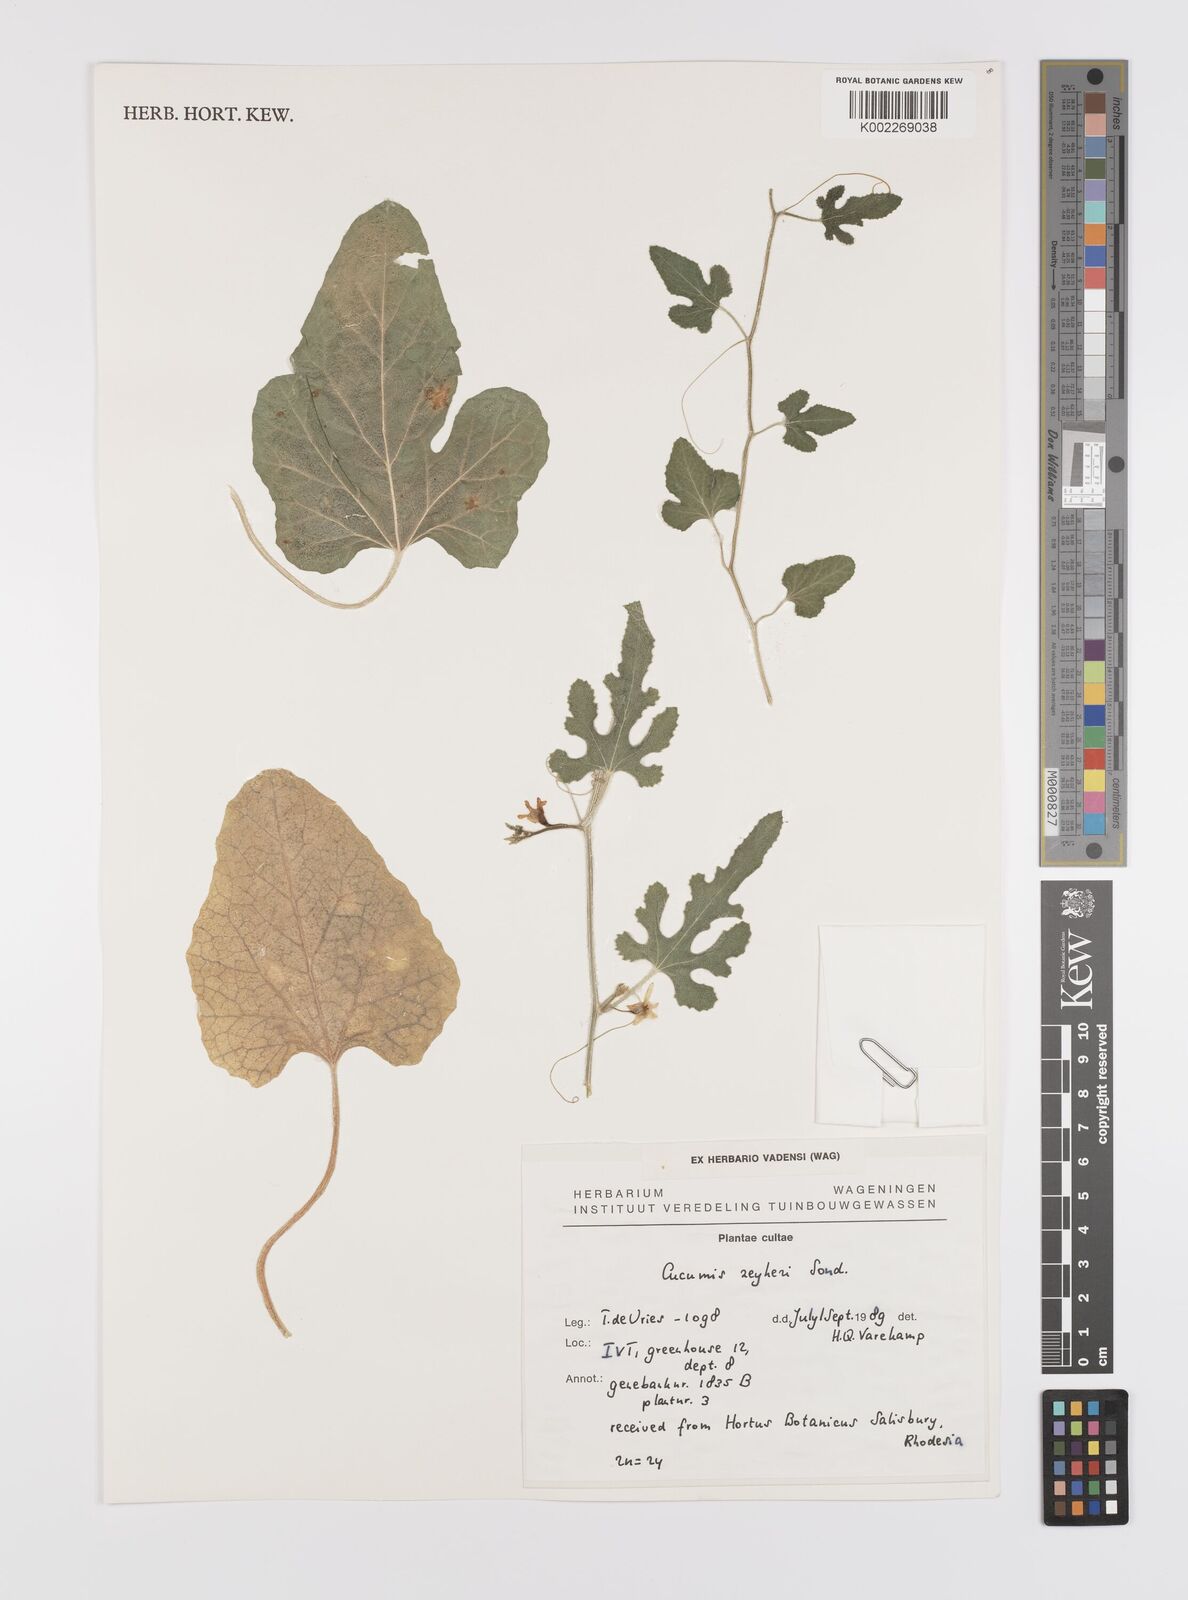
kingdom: Plantae
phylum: Tracheophyta
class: Magnoliopsida
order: Cucurbitales
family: Cucurbitaceae
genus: Cucumis
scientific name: Cucumis sativus
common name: Cucumber
